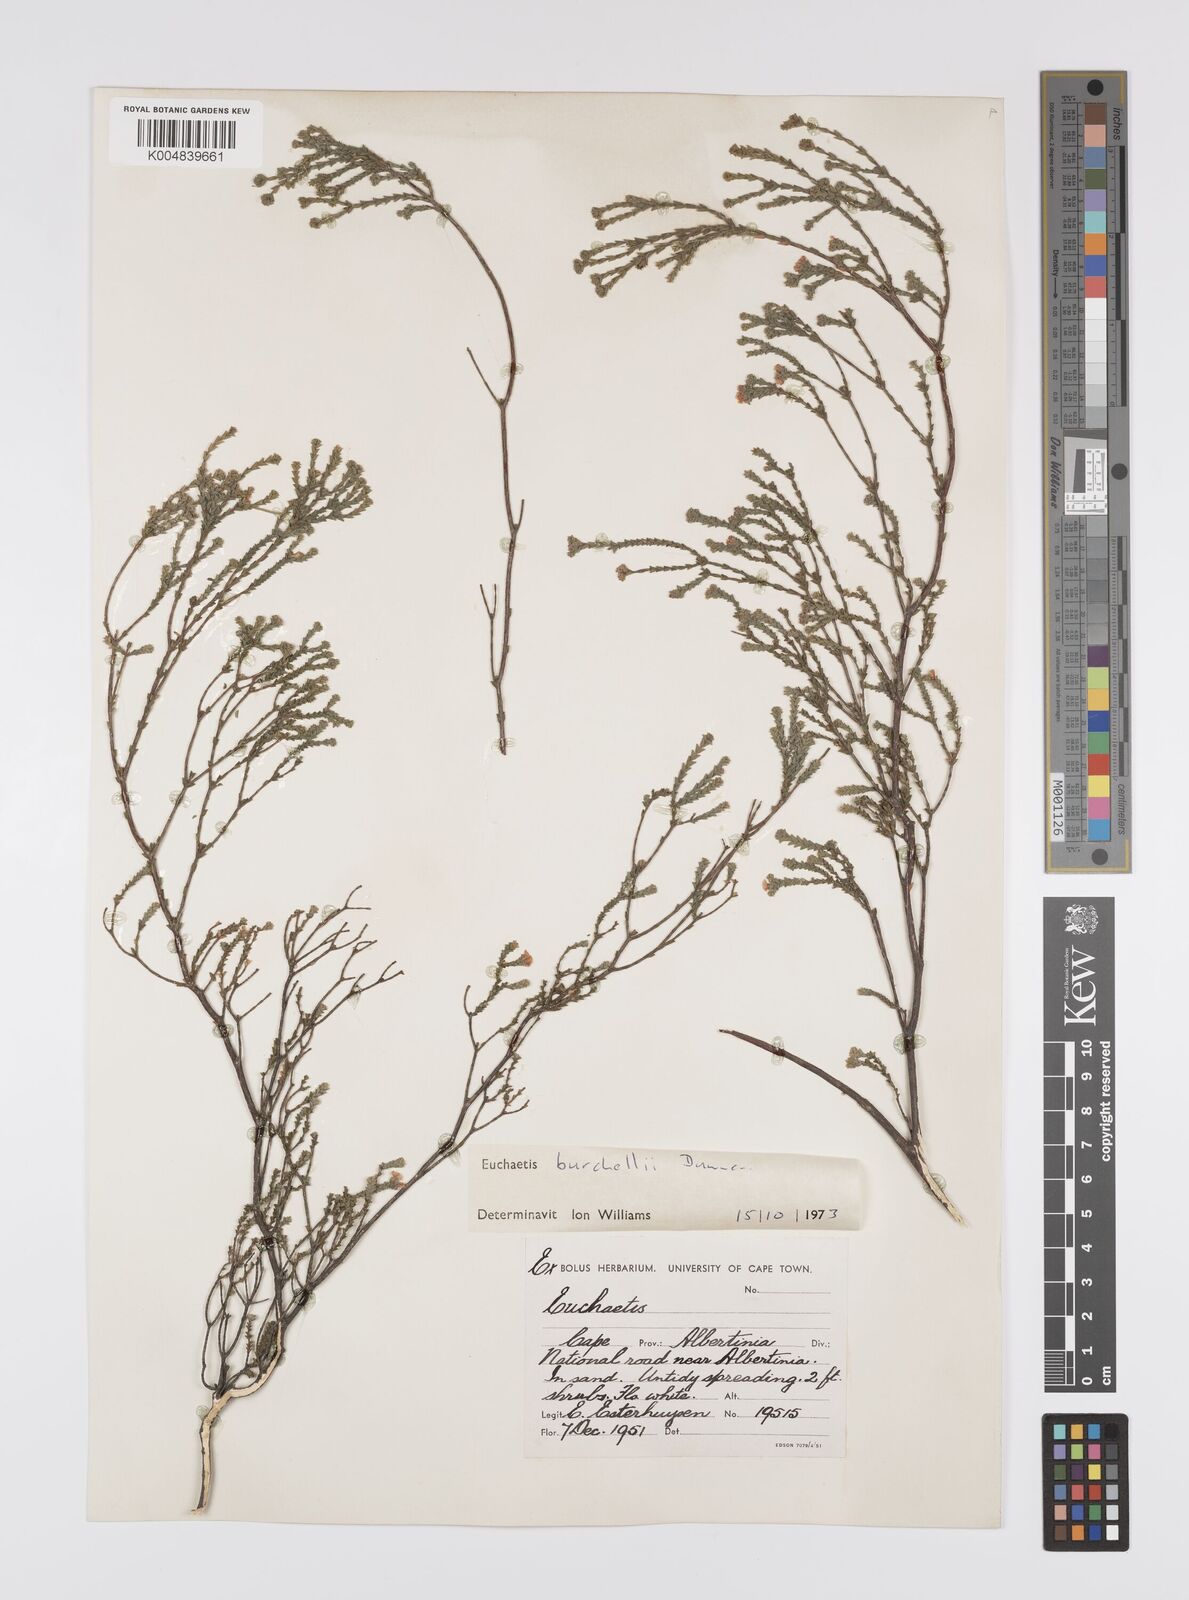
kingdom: Plantae
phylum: Tracheophyta
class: Magnoliopsida
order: Sapindales
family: Rutaceae
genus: Euchaetis
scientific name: Euchaetis burchellii
